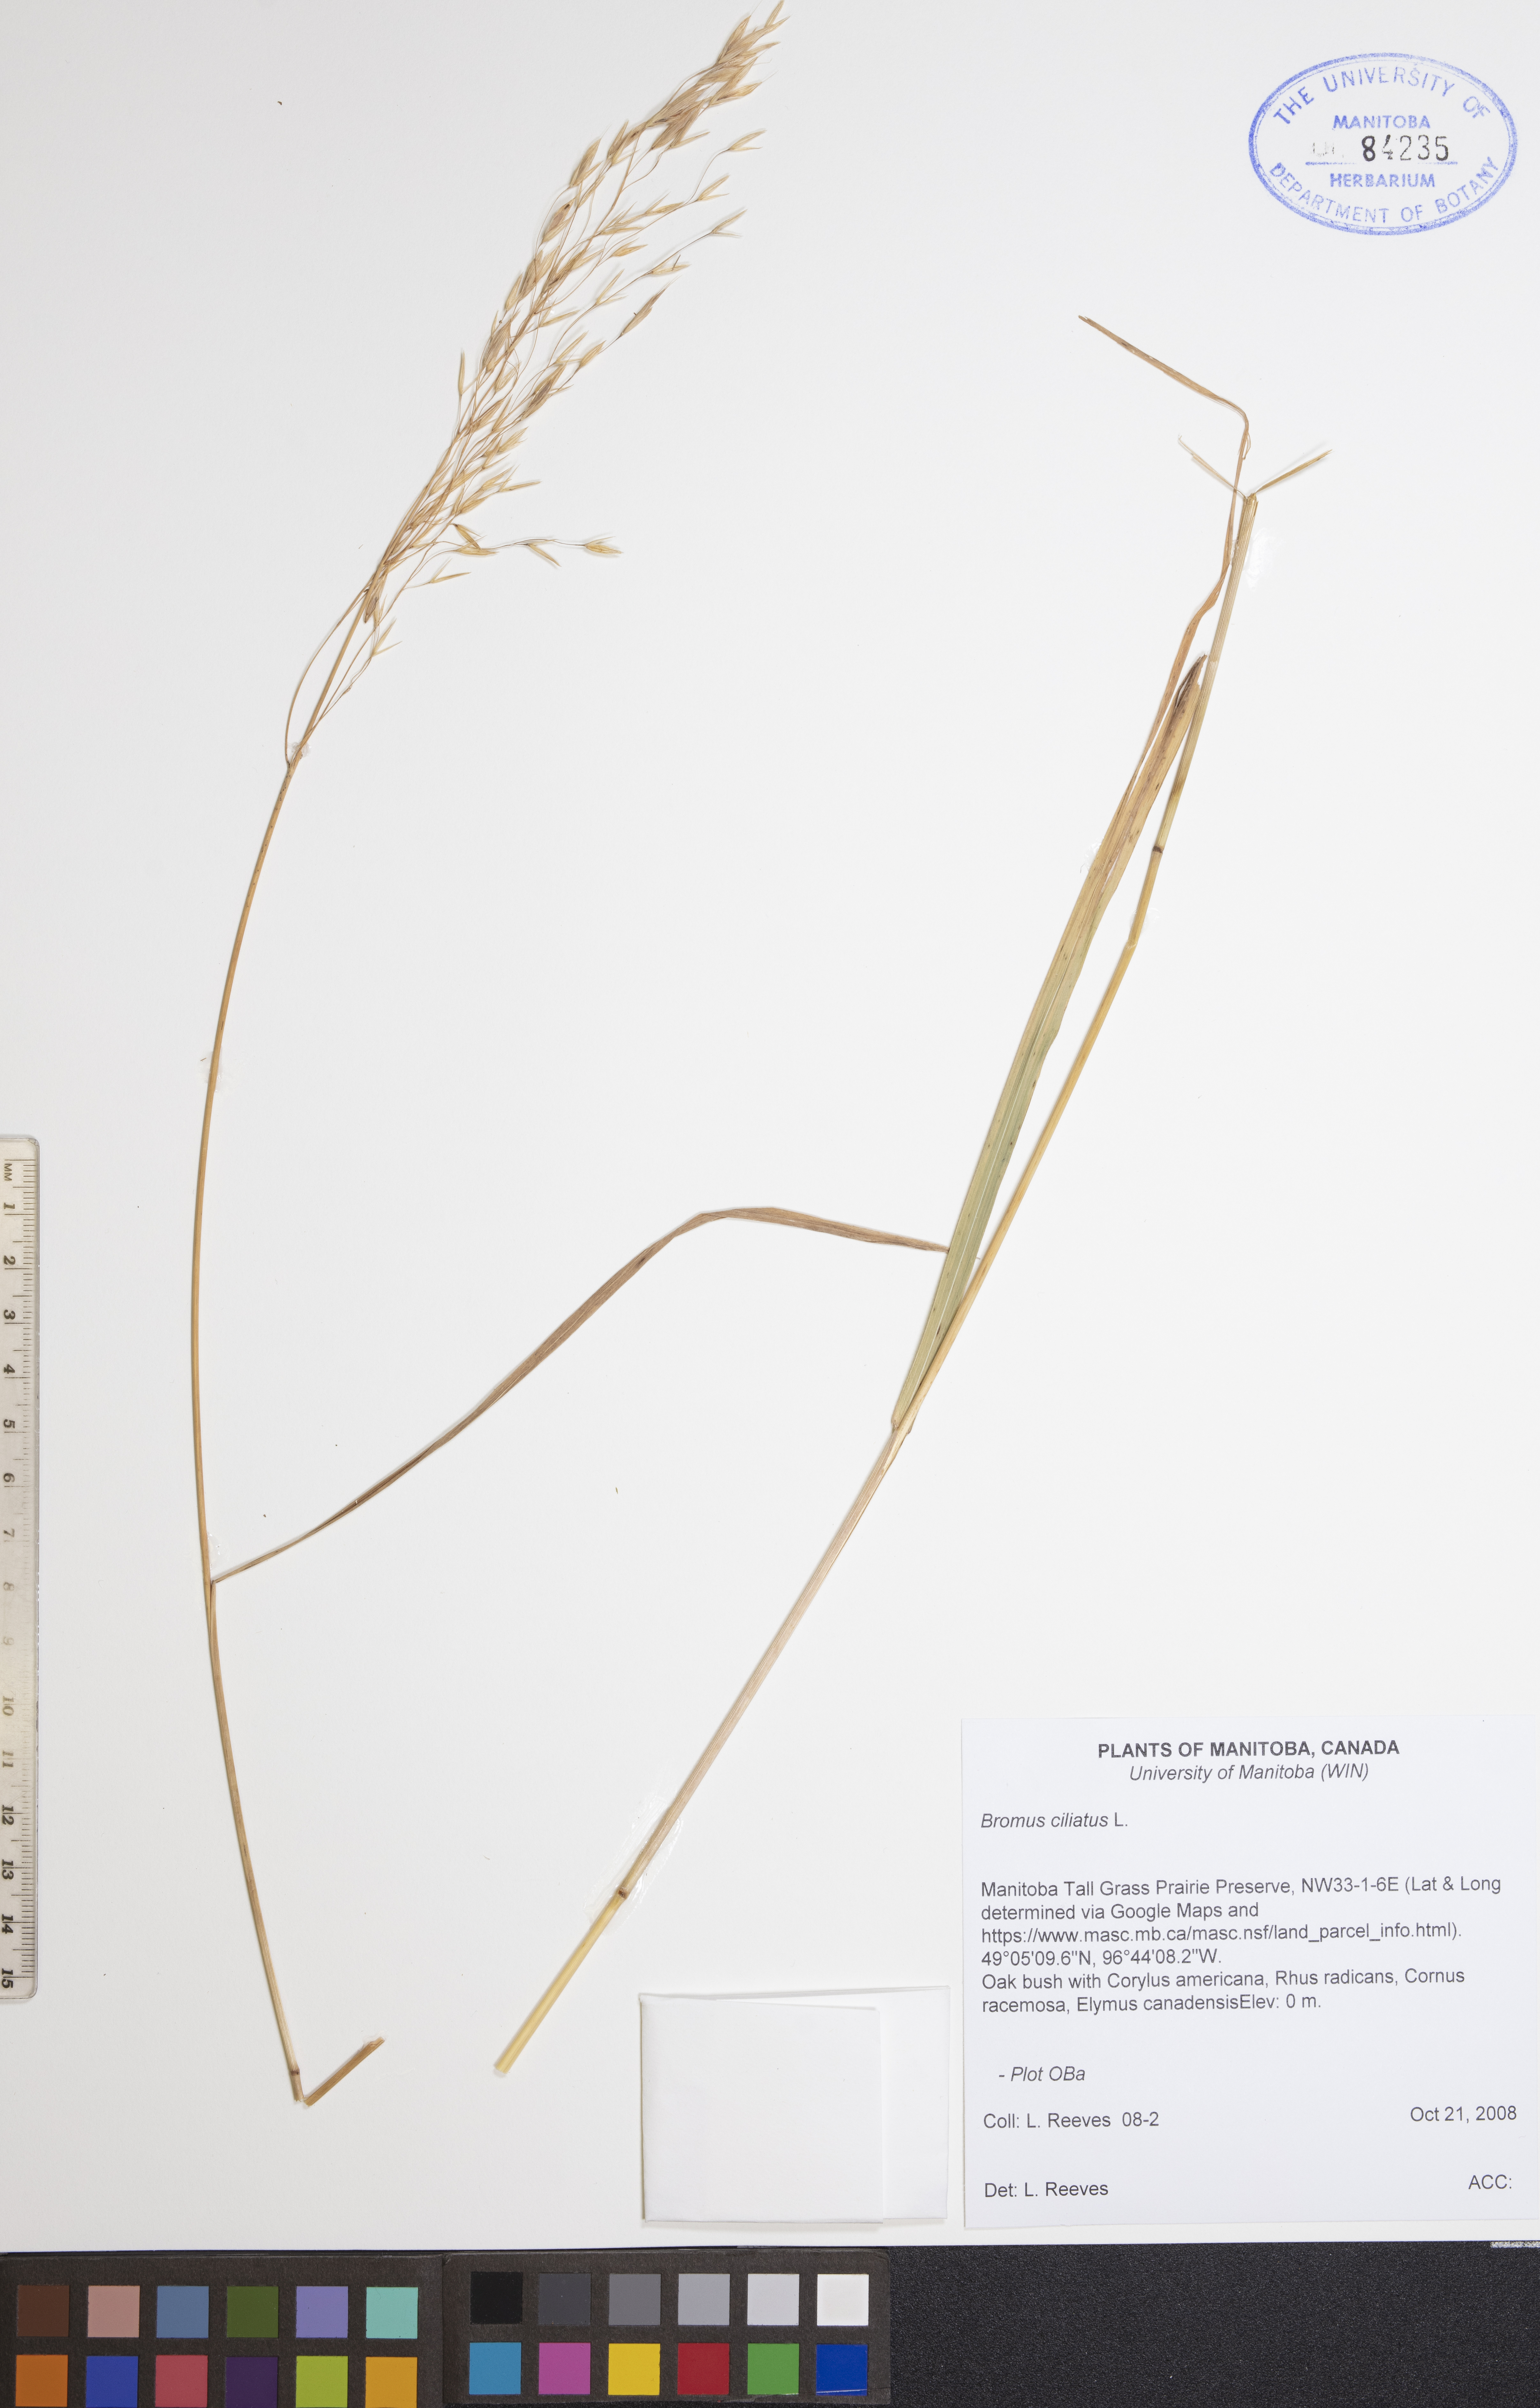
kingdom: Plantae
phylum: Tracheophyta
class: Liliopsida
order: Poales
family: Poaceae
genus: Bromus
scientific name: Bromus ciliatus
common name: Fringe brome
